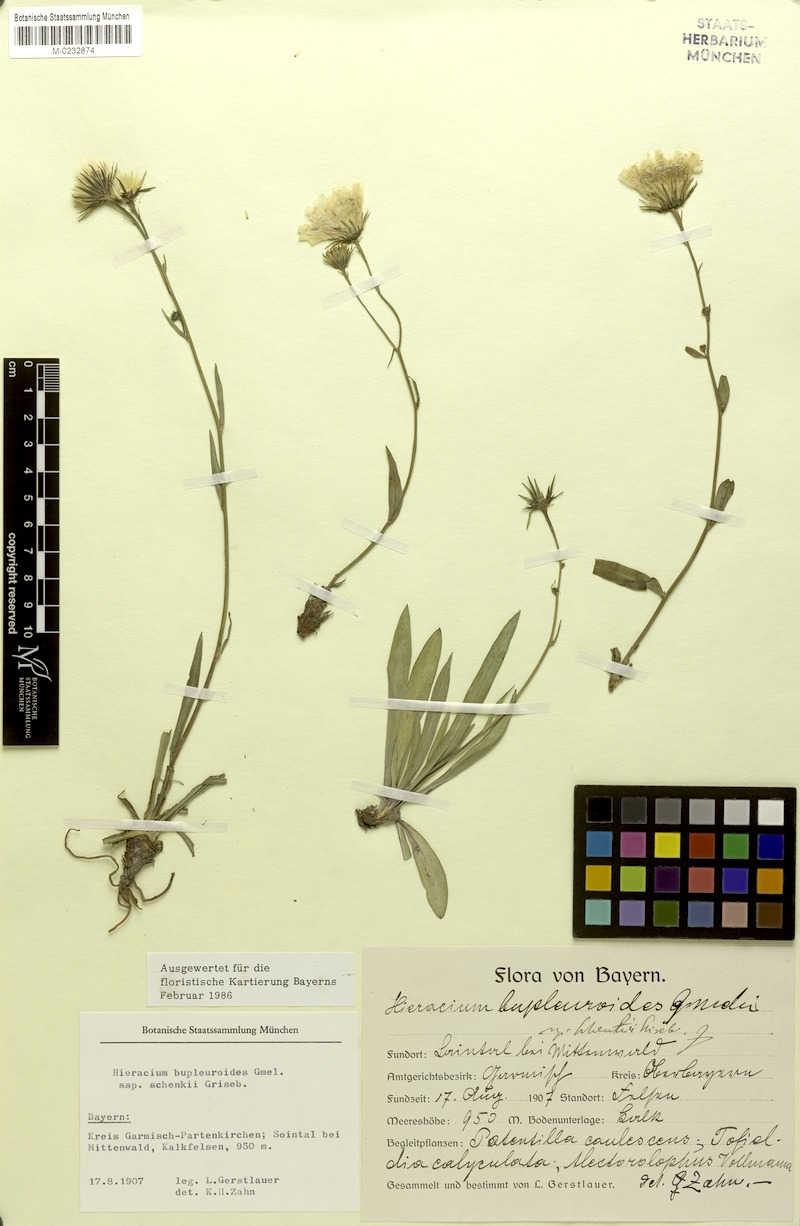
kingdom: Plantae
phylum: Tracheophyta
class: Magnoliopsida
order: Asterales
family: Asteraceae
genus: Hieracium
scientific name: Hieracium bupleuroides
